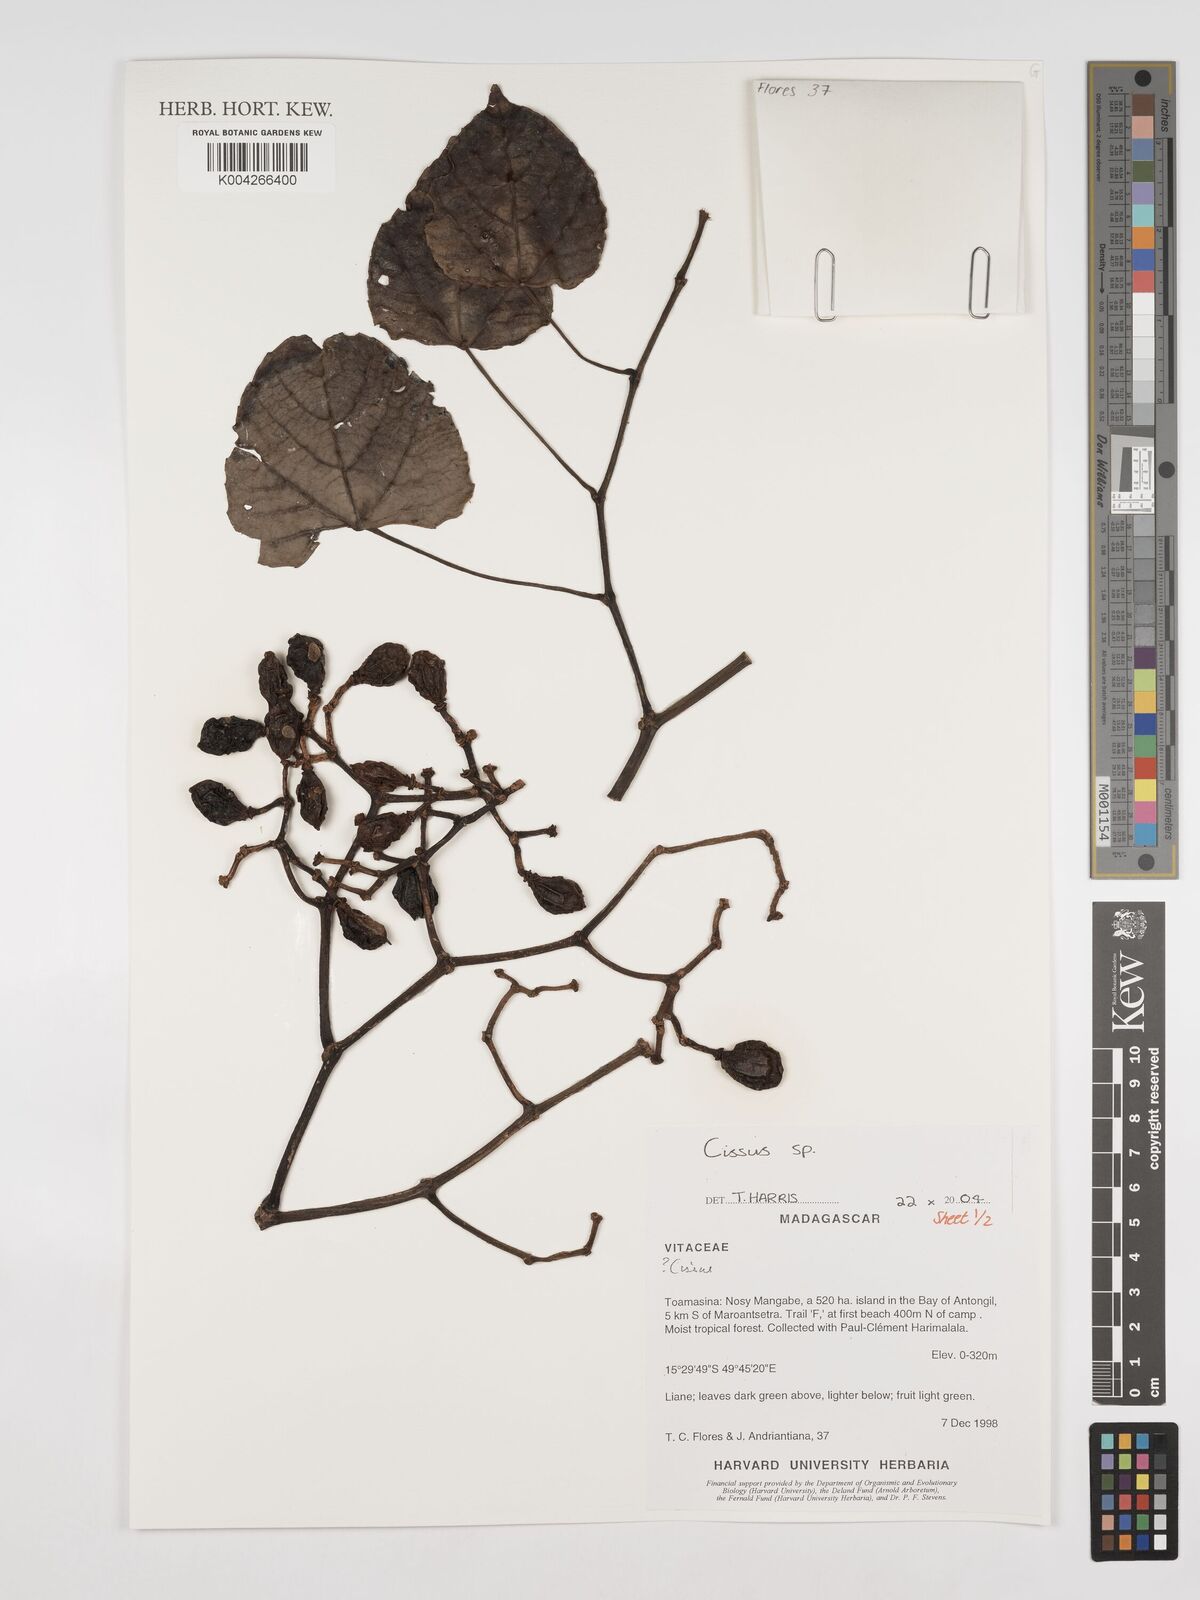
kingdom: Plantae
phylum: Tracheophyta
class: Magnoliopsida
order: Vitales
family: Vitaceae
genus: Cissus
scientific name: Cissus
